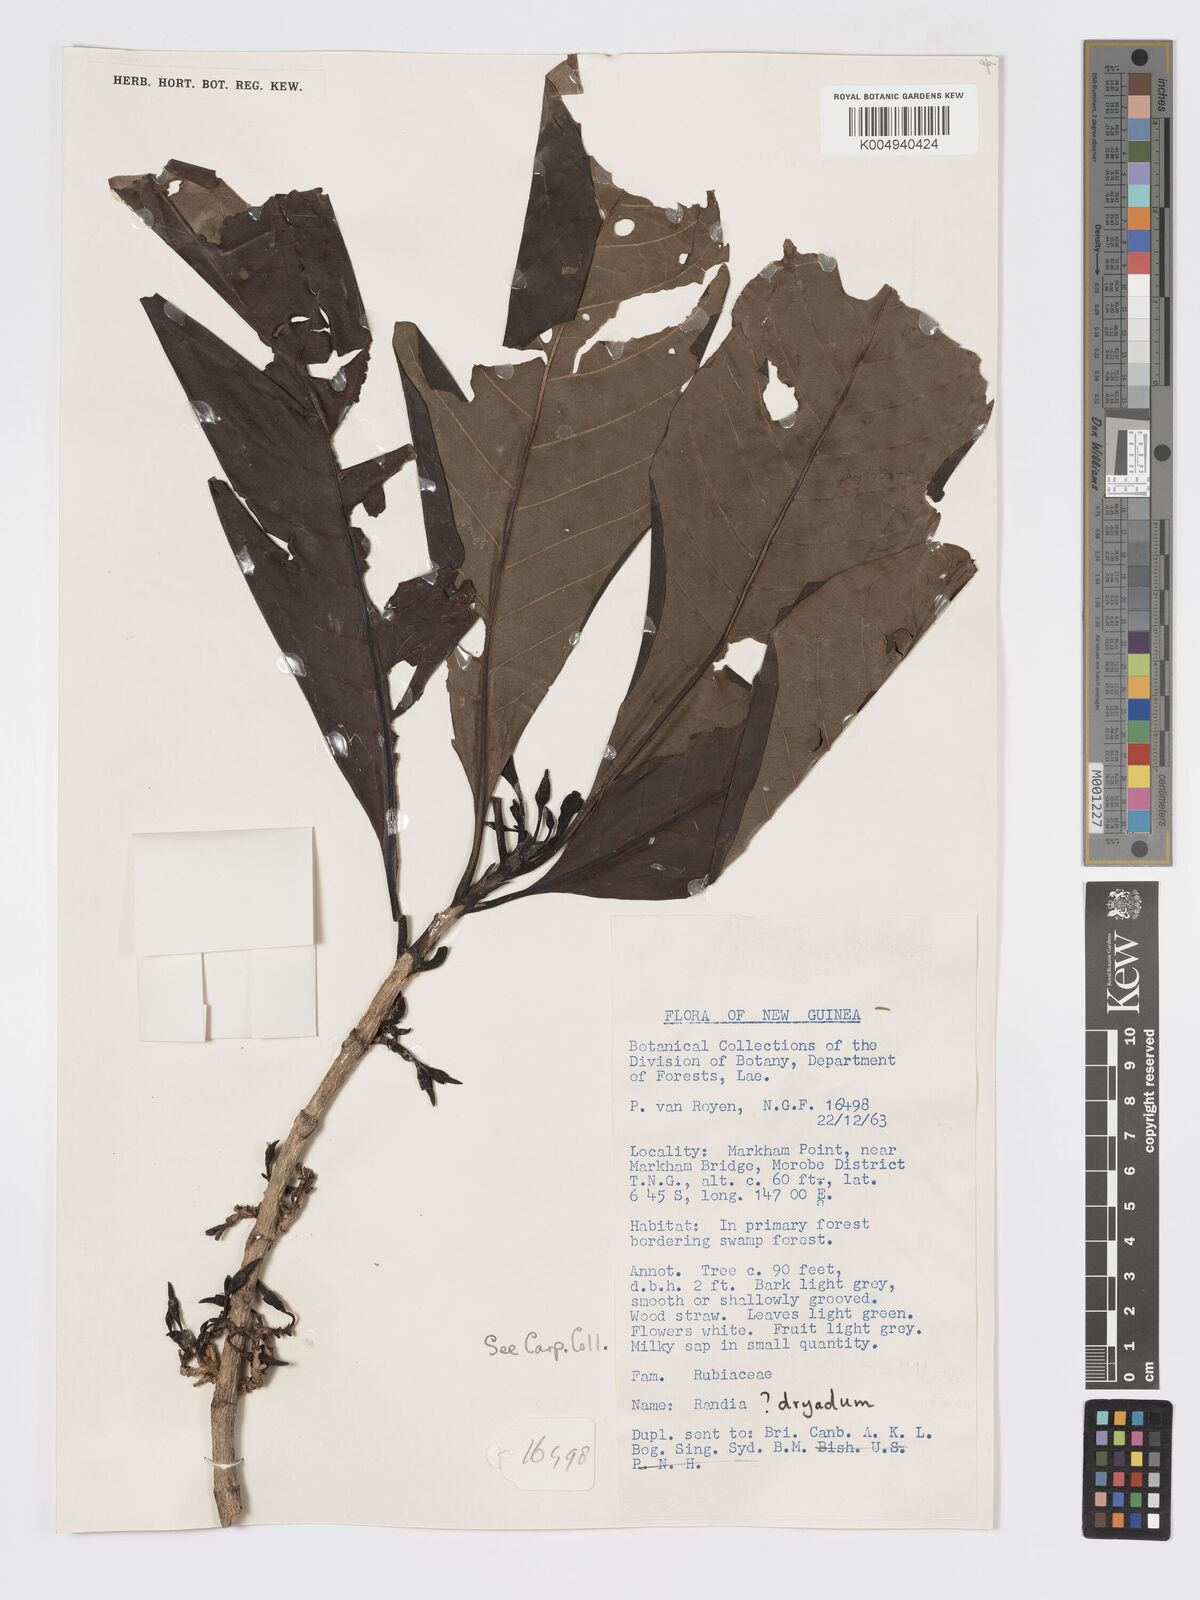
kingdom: Plantae
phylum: Tracheophyta
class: Magnoliopsida
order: Gentianales
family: Rubiaceae
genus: Atractocarpus
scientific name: Atractocarpus macarthurii
